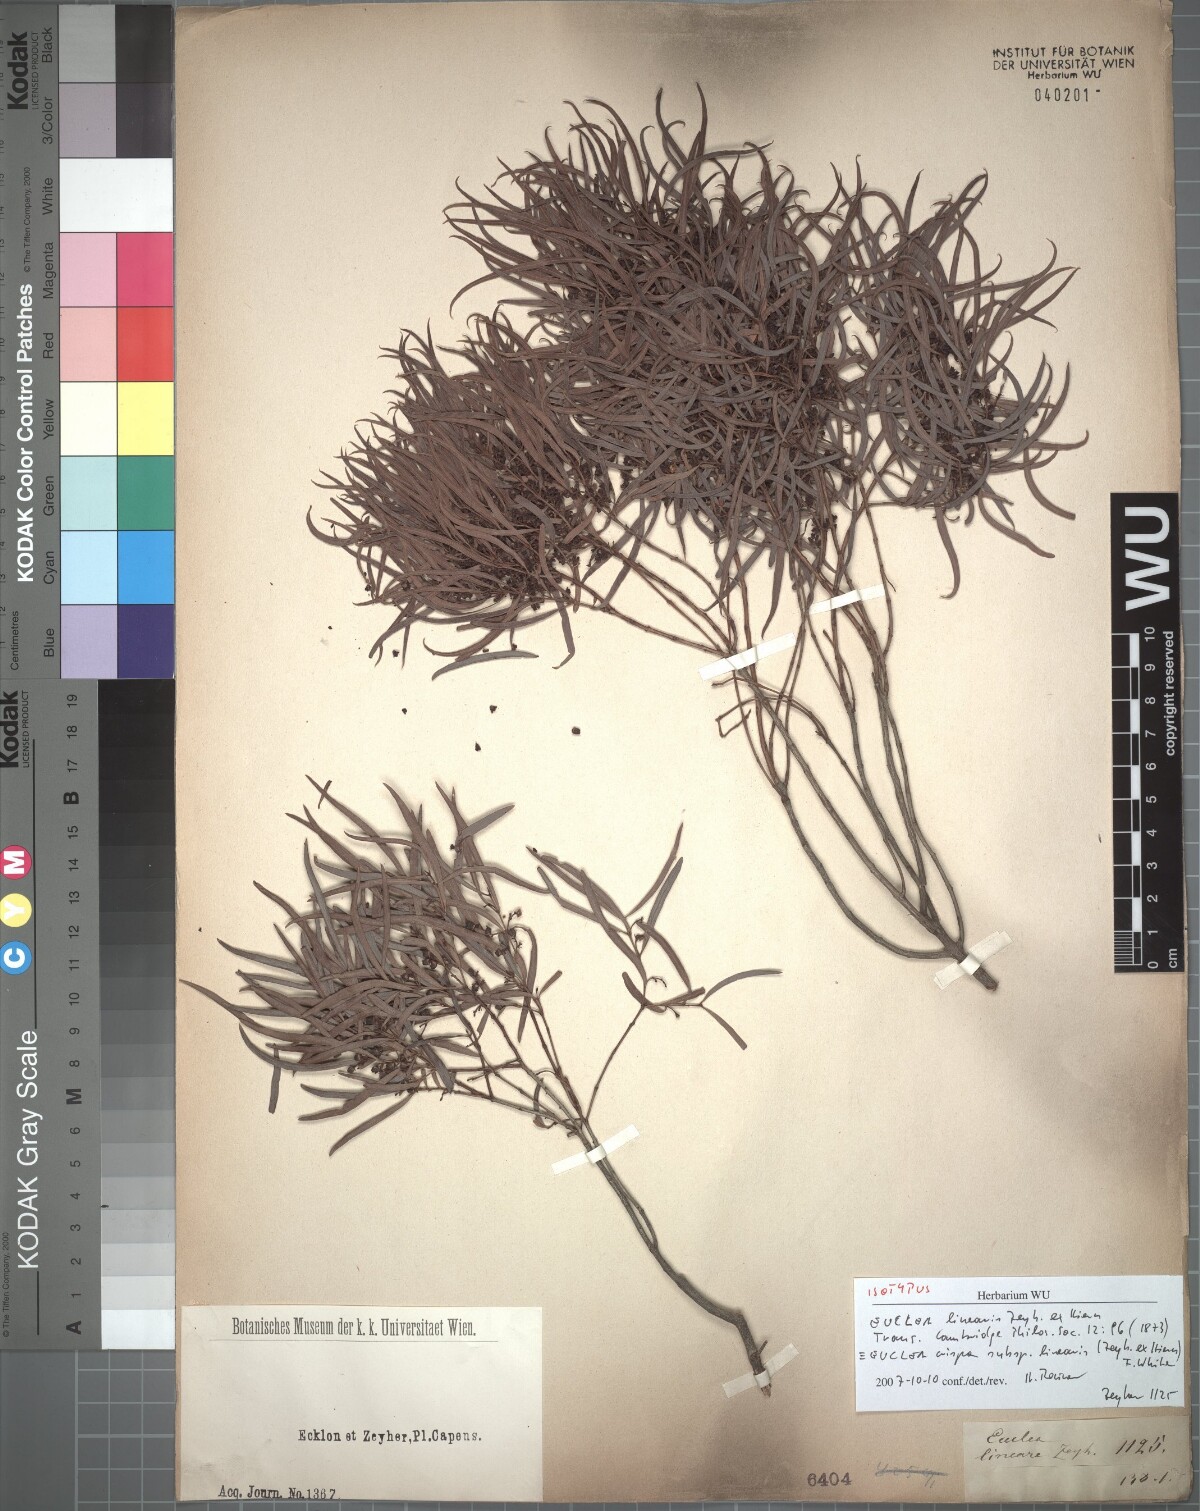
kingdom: Plantae
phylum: Tracheophyta
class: Magnoliopsida
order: Ericales
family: Ebenaceae
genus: Euclea
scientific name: Euclea crispa
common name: Blue guarri
